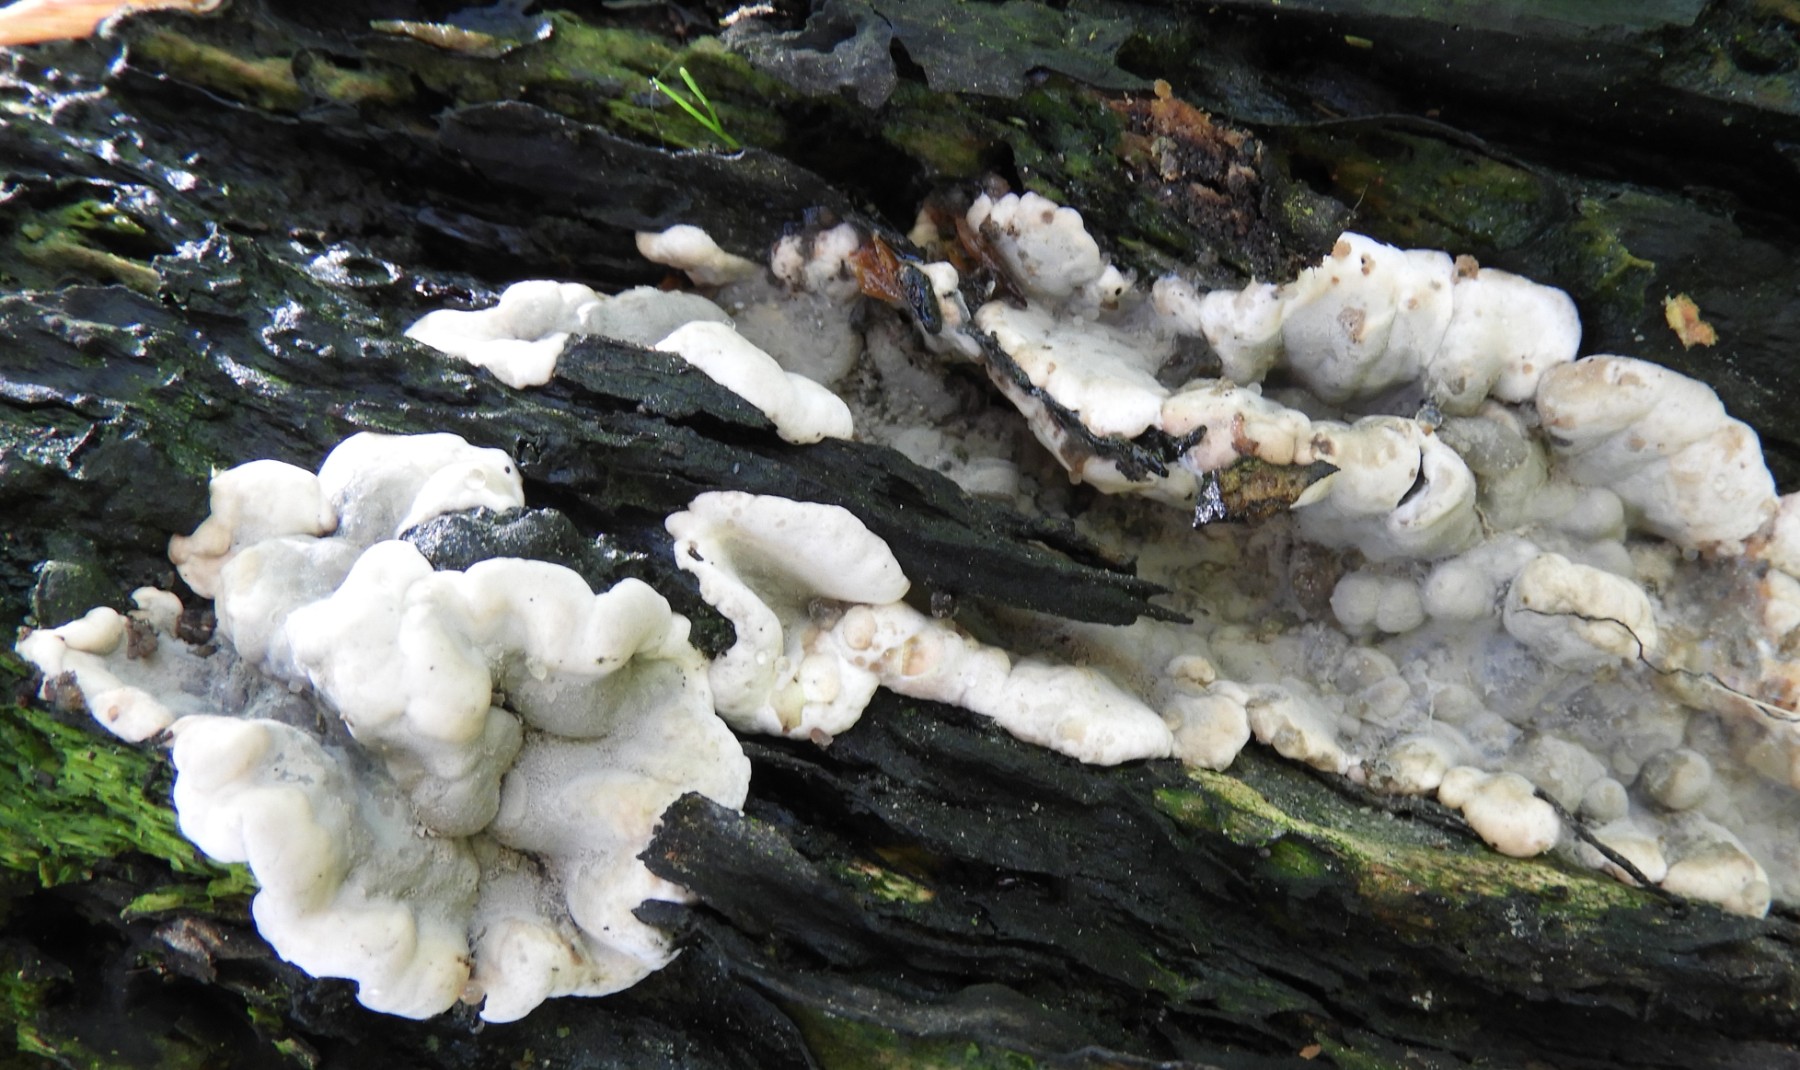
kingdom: Fungi
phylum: Ascomycota
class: Sordariomycetes
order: Xylariales
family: Xylariaceae
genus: Kretzschmaria
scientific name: Kretzschmaria deusta
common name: stor kulsvamp
